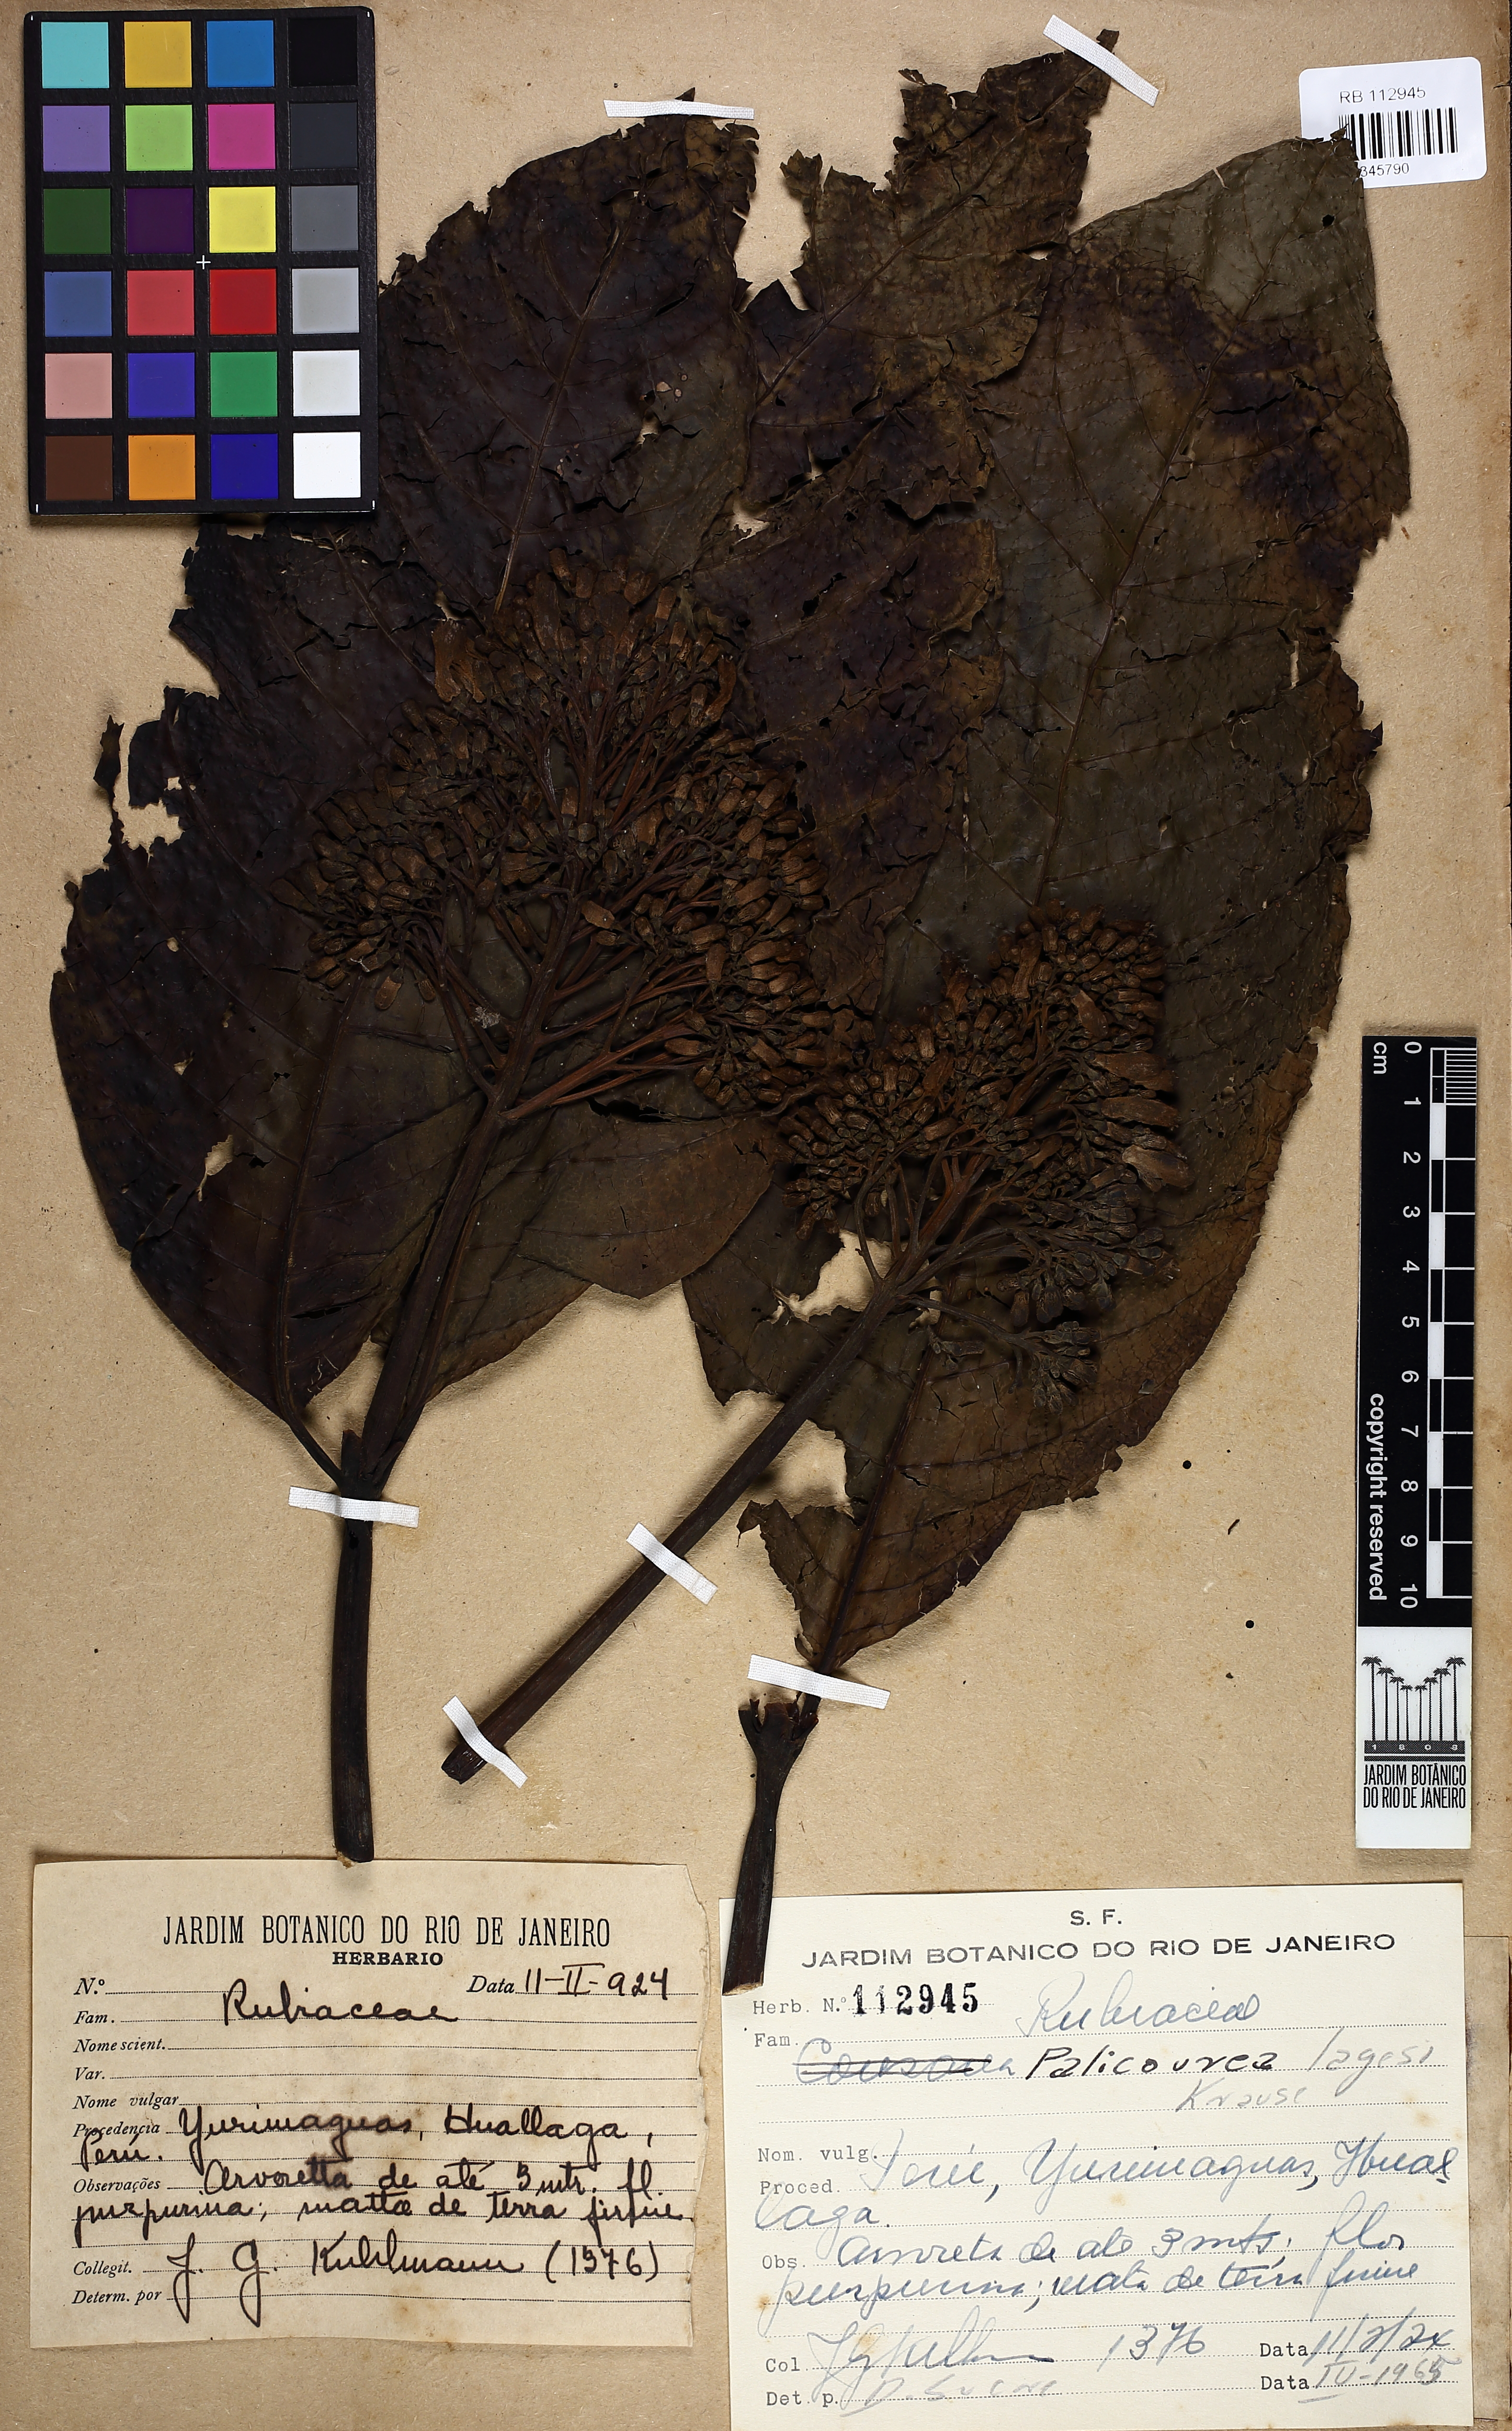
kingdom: Plantae
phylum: Tracheophyta
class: Magnoliopsida
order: Gentianales
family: Rubiaceae
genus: Palicourea
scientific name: Palicourea lasiantha
